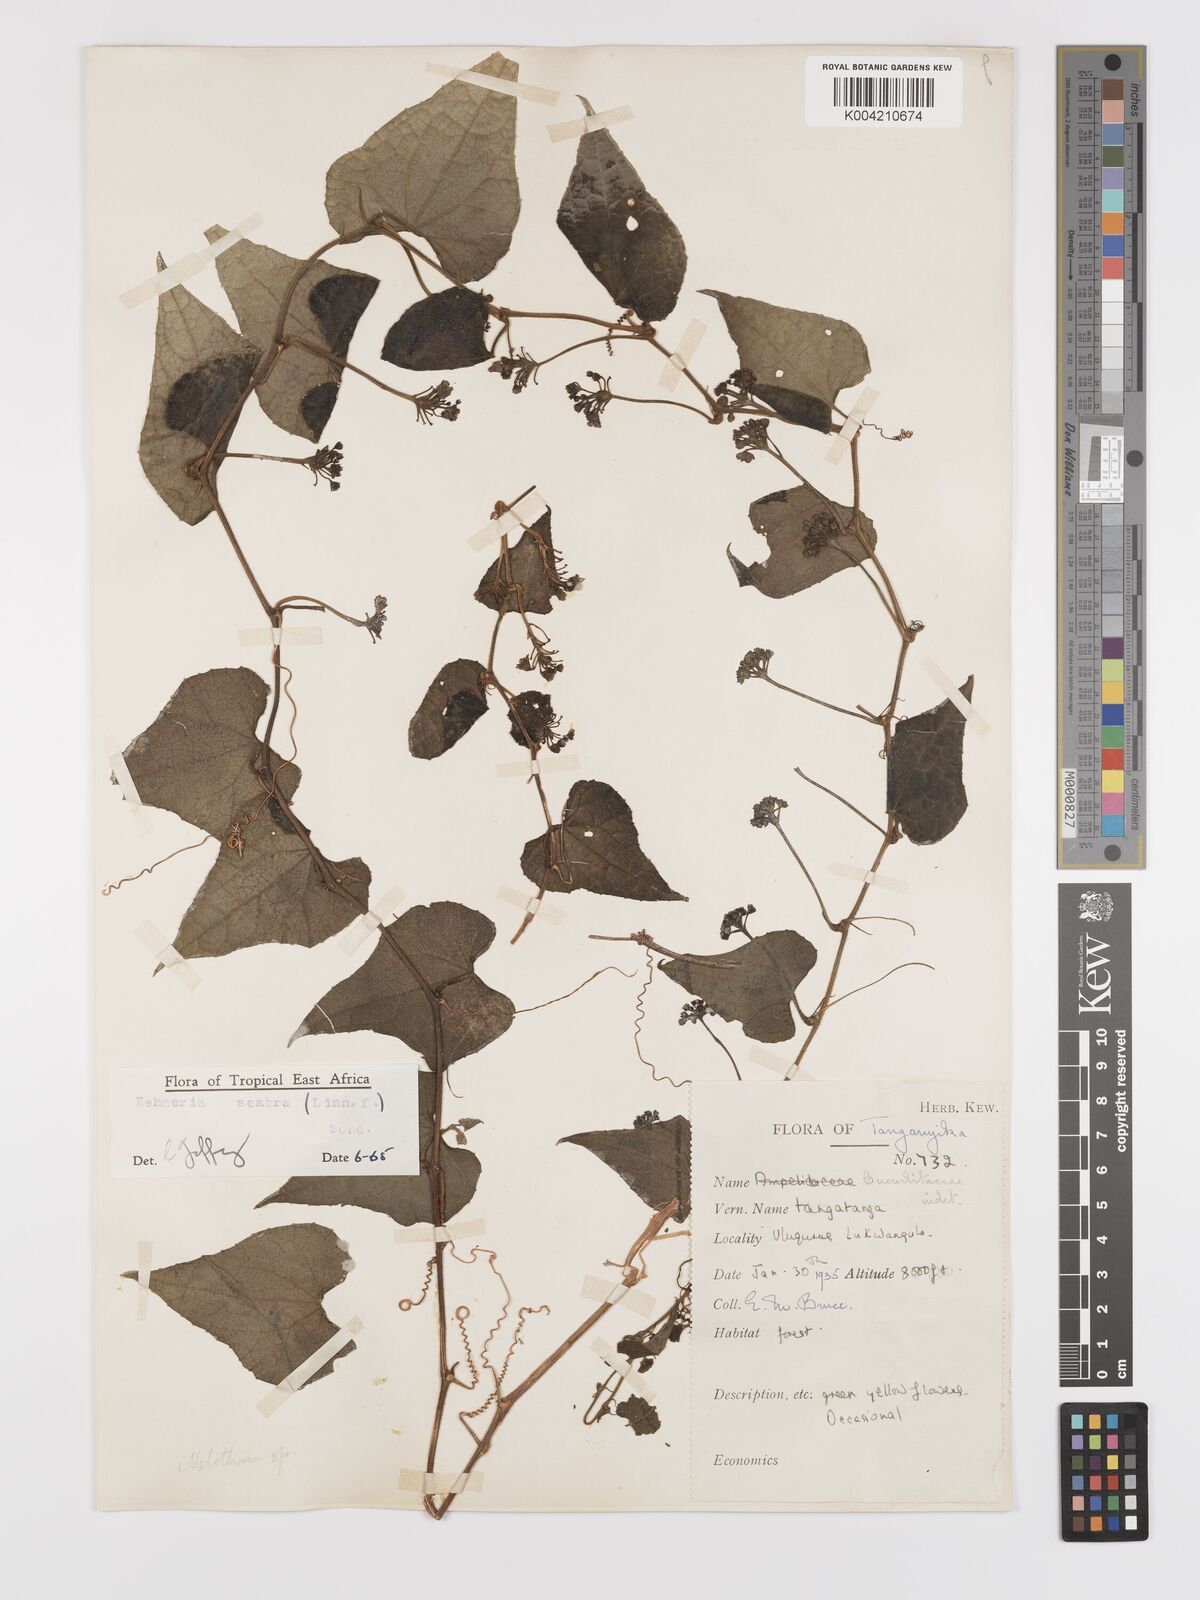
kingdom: Plantae
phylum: Tracheophyta
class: Magnoliopsida
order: Cucurbitales
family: Cucurbitaceae
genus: Zehneria
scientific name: Zehneria scabra
